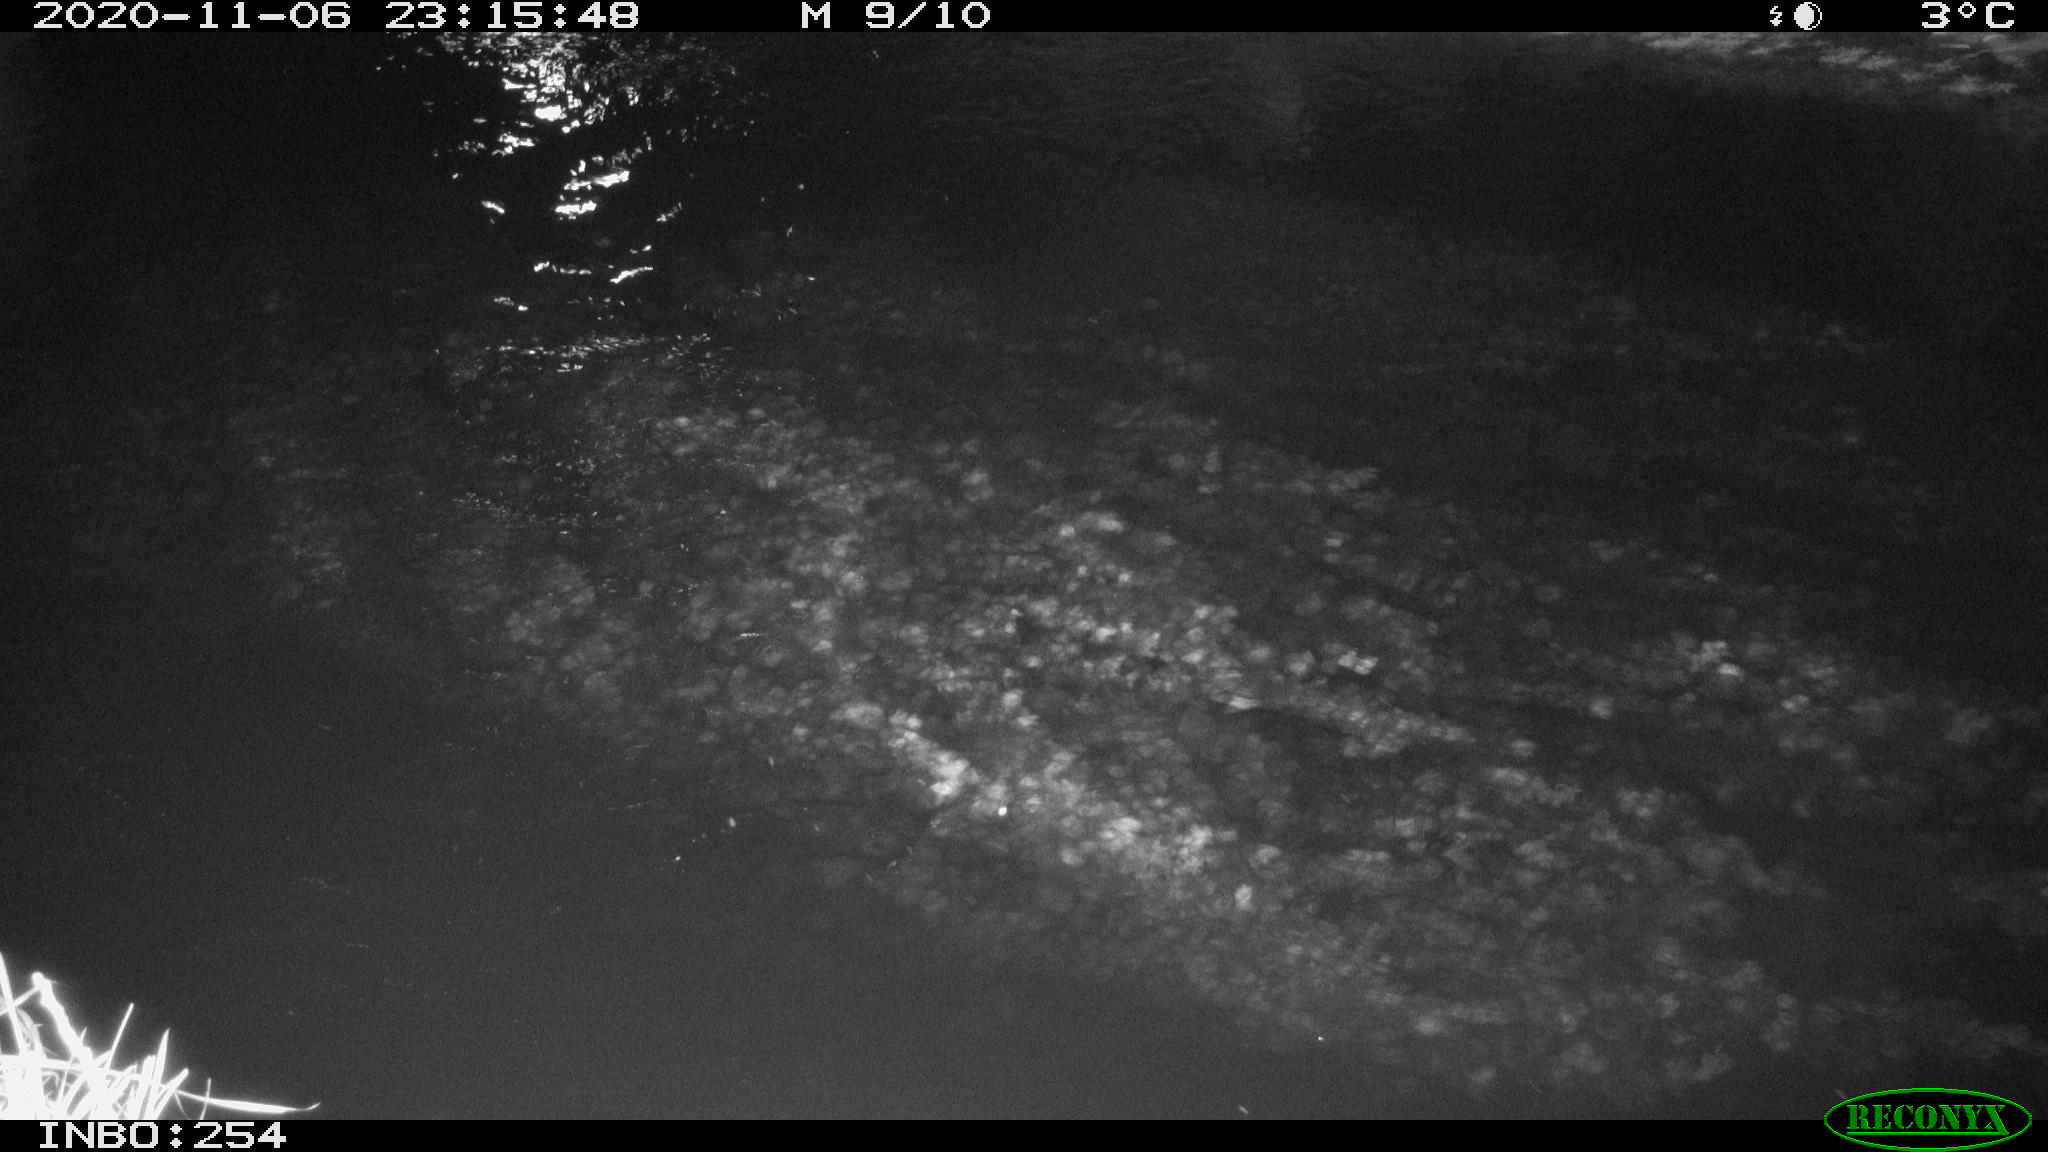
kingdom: Animalia
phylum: Chordata
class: Aves
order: Anseriformes
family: Anatidae
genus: Anas
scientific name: Anas platyrhynchos
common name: Mallard
